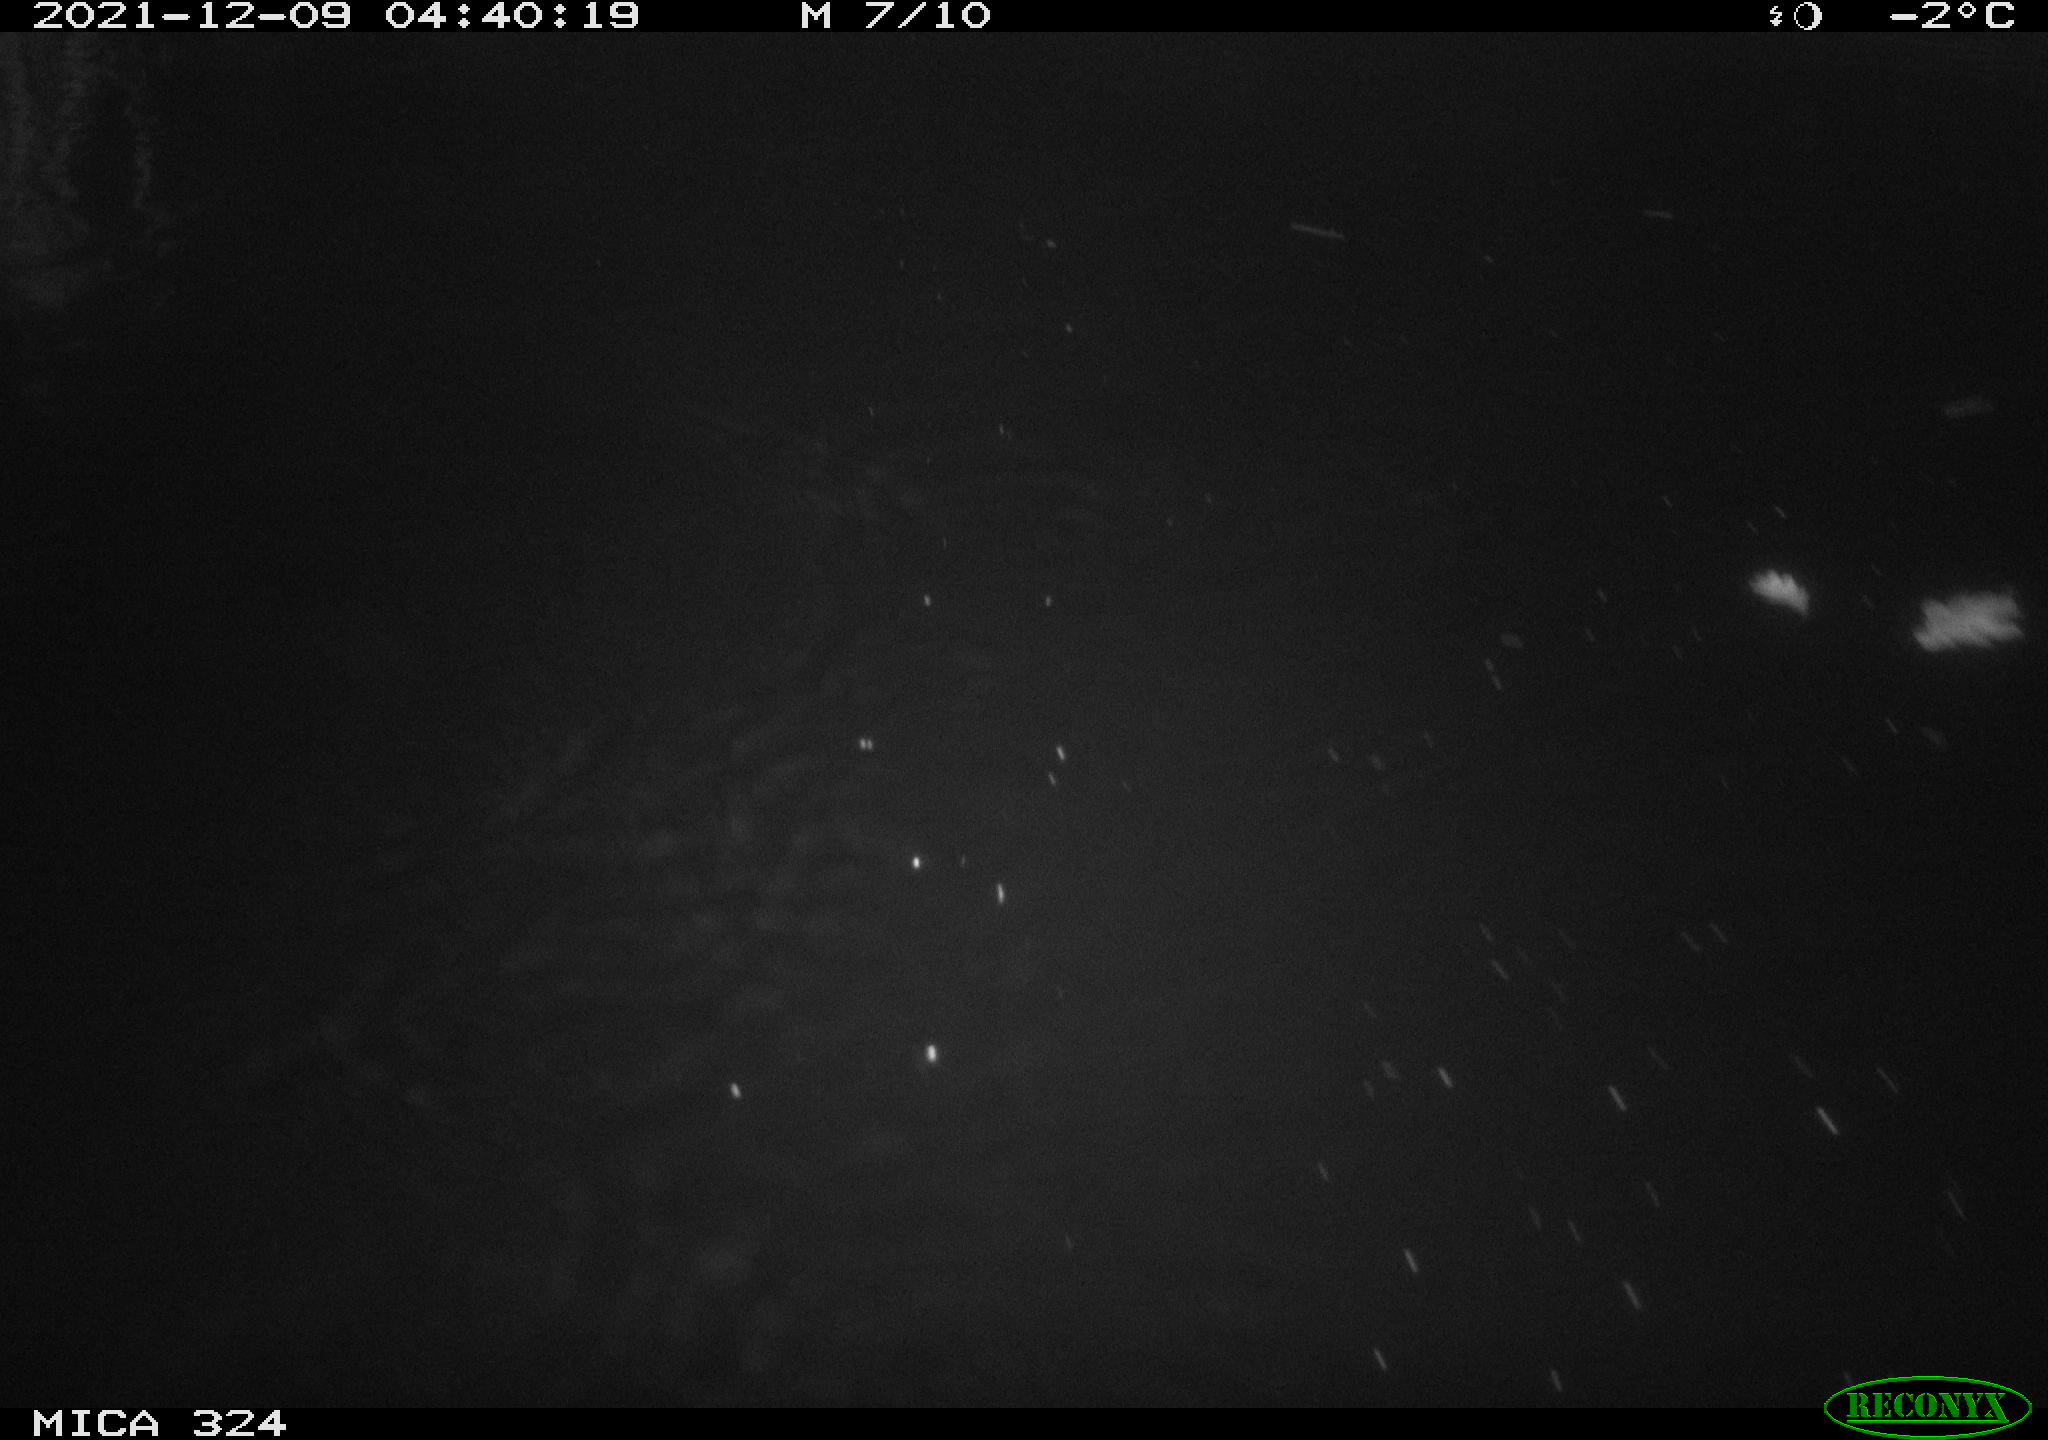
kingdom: Animalia
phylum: Chordata
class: Mammalia
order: Rodentia
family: Cricetidae
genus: Ondatra
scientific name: Ondatra zibethicus
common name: Muskrat
